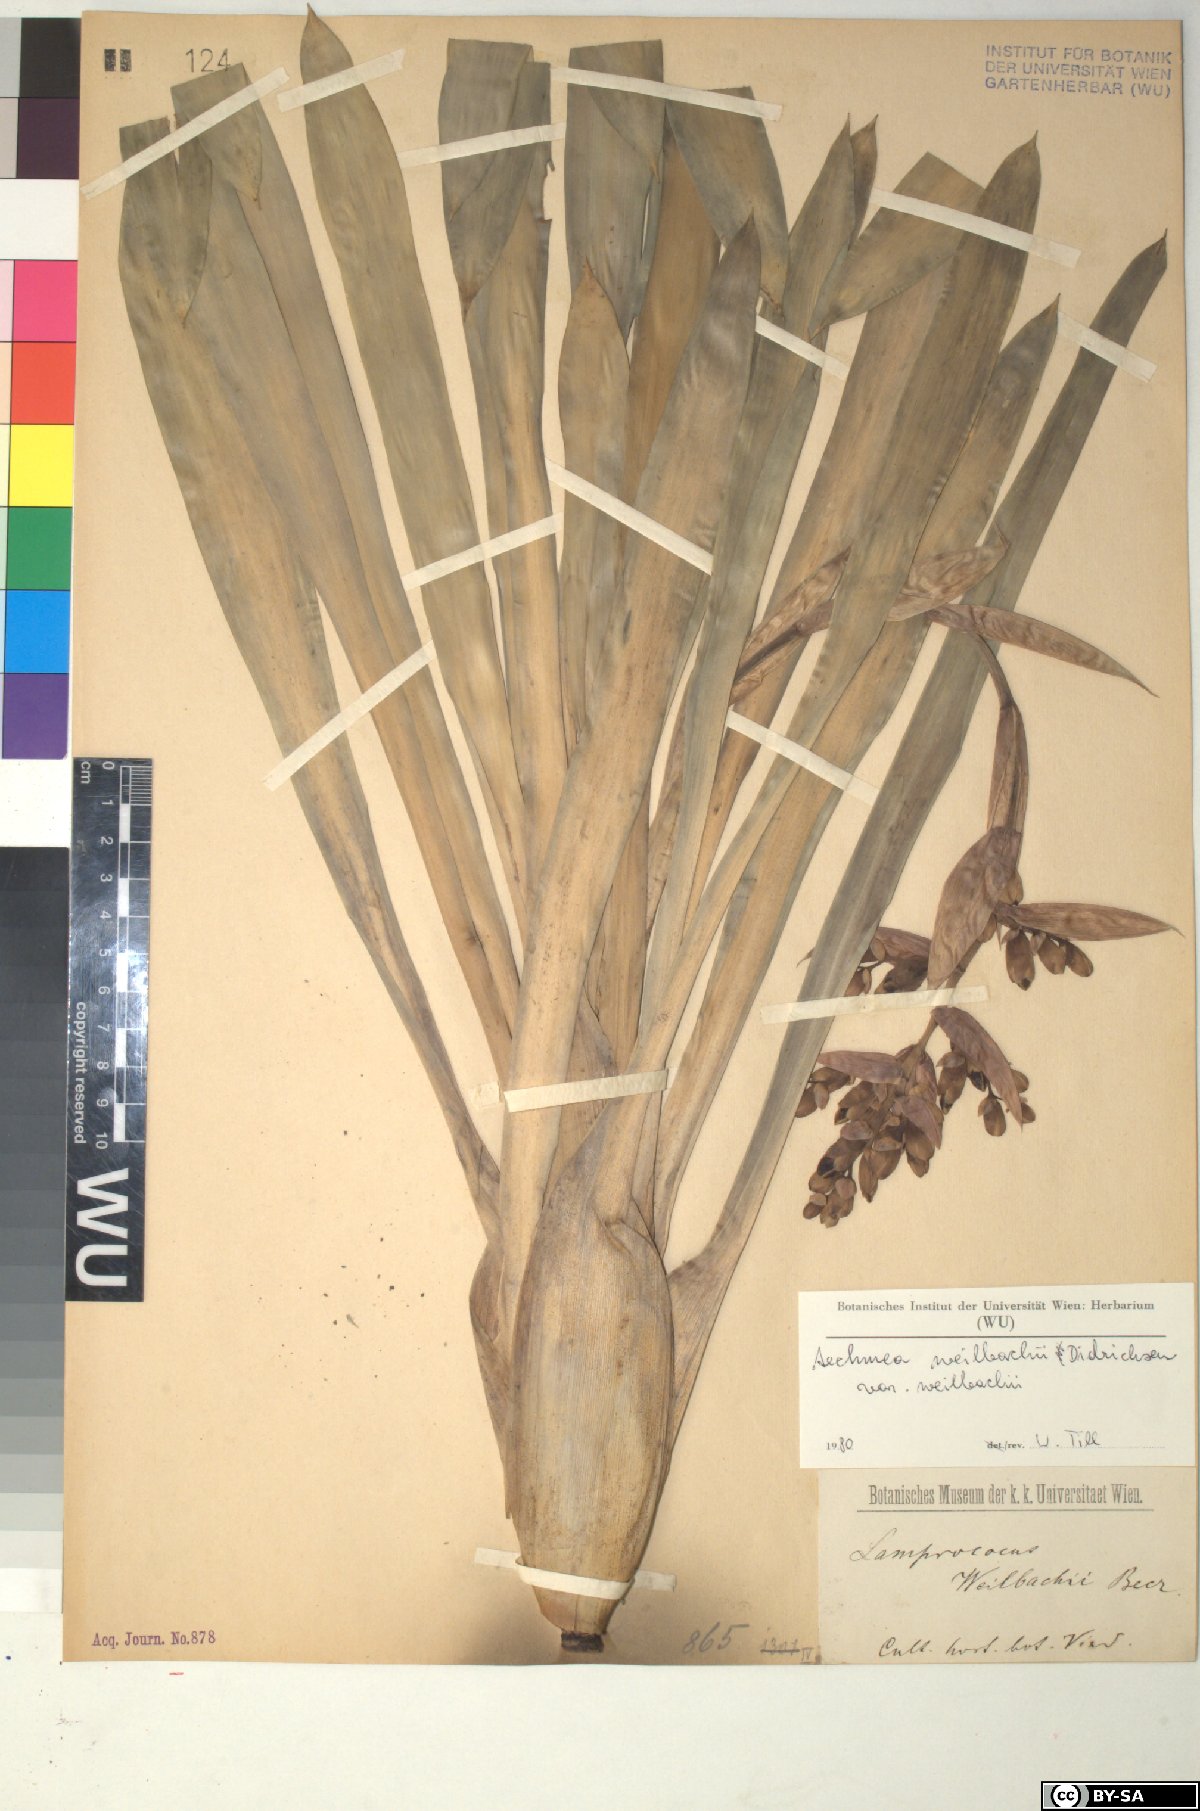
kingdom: Plantae
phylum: Tracheophyta
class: Liliopsida
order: Poales
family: Bromeliaceae
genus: Aechmea
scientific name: Aechmea
